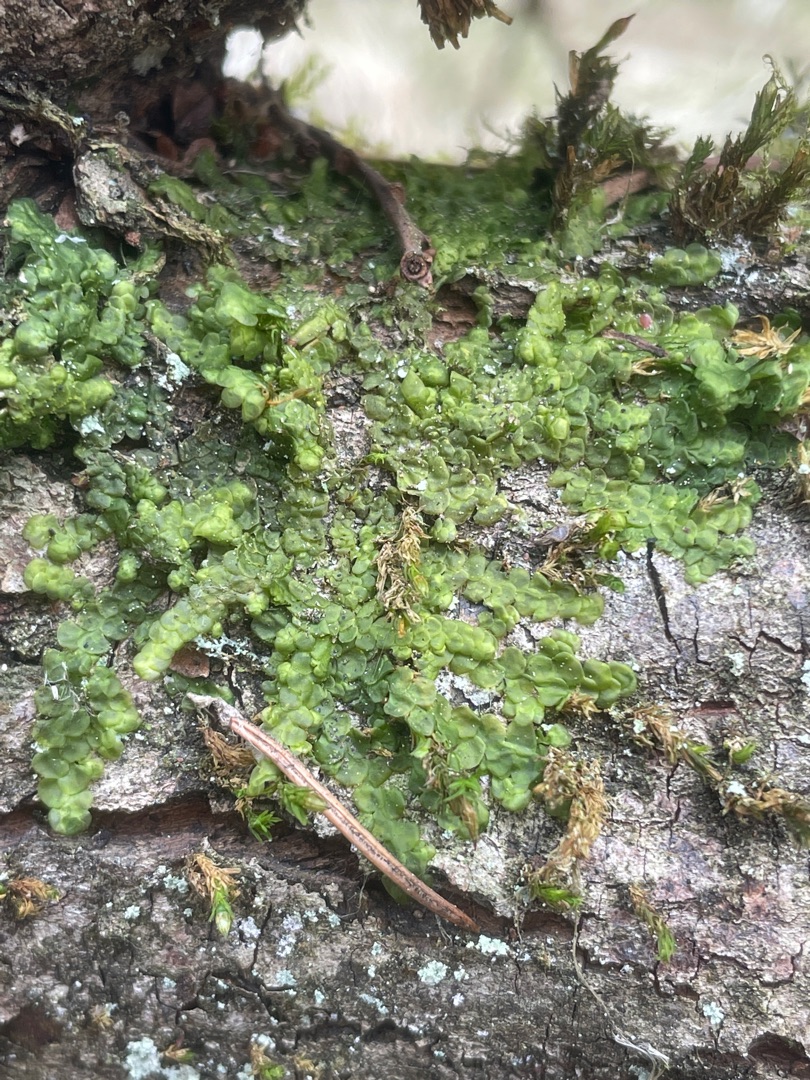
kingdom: Plantae
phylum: Marchantiophyta
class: Jungermanniopsida
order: Porellales
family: Radulaceae
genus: Radula
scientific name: Radula complanata
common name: Almindelig spartelmos
